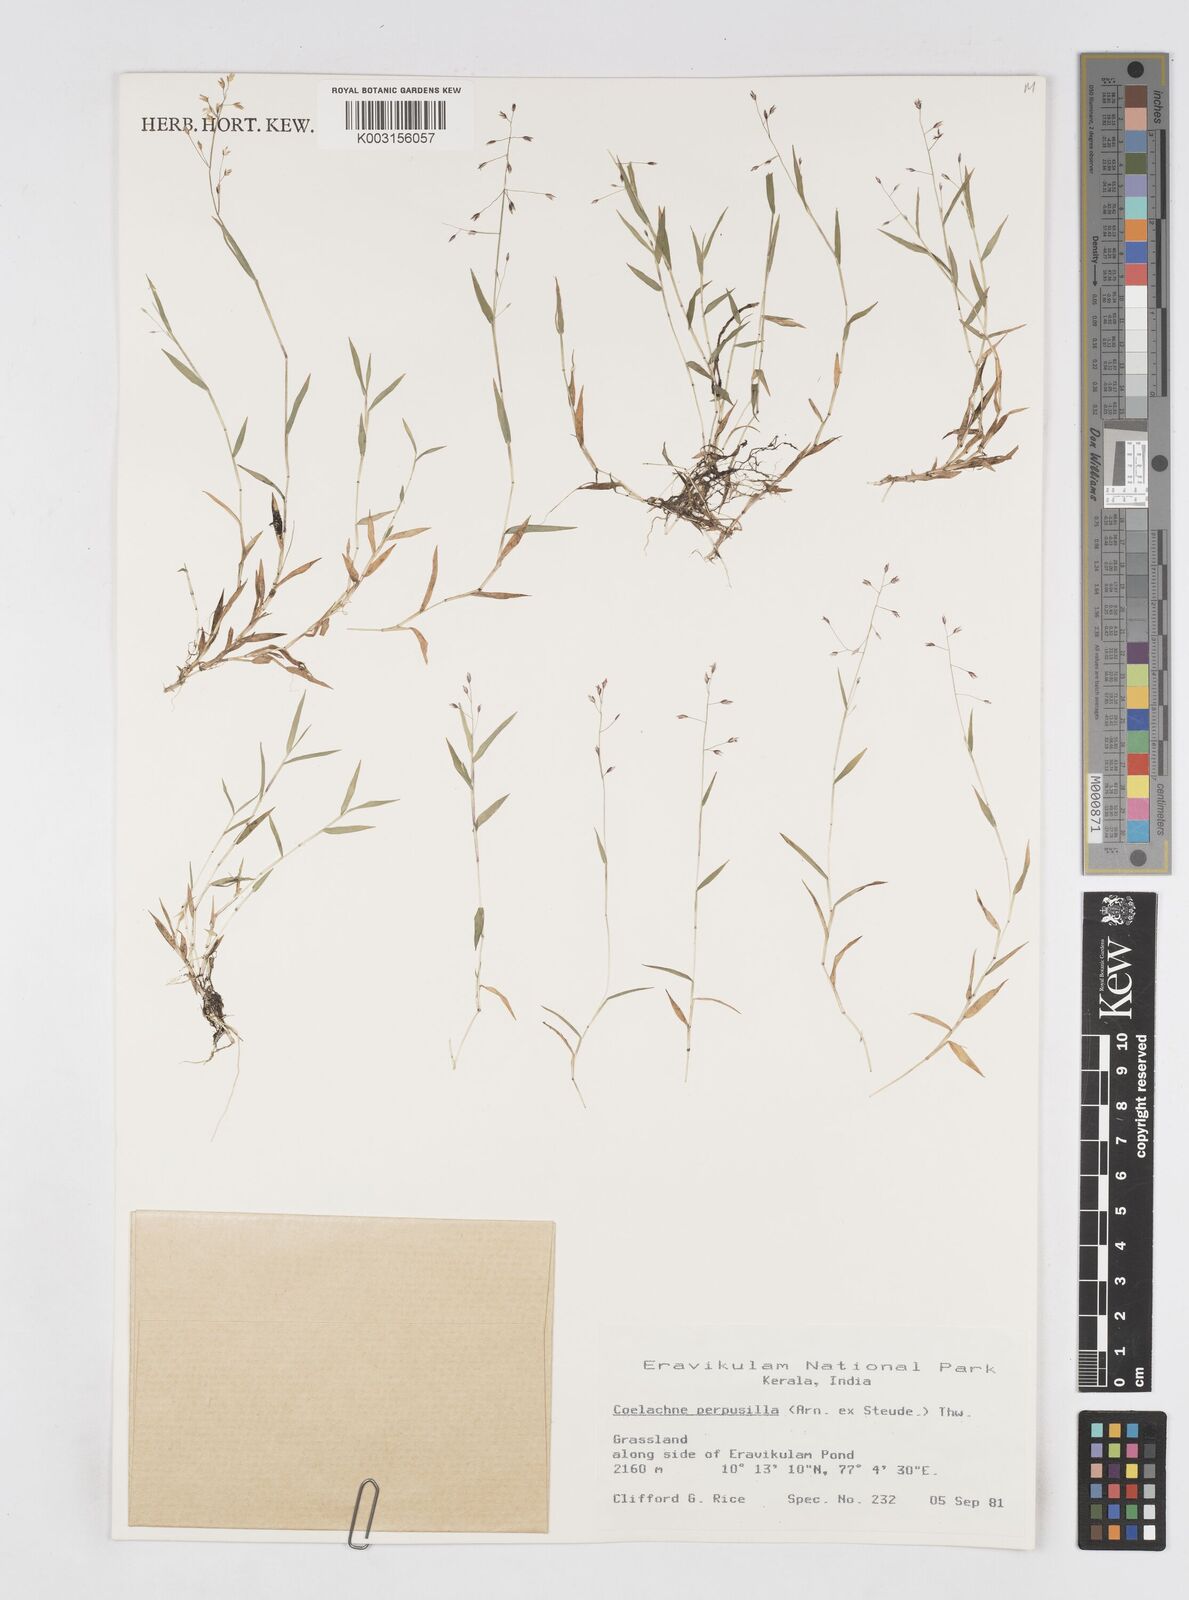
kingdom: Plantae
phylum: Tracheophyta
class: Liliopsida
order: Poales
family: Poaceae
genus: Coelachne
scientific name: Coelachne perpusilla
